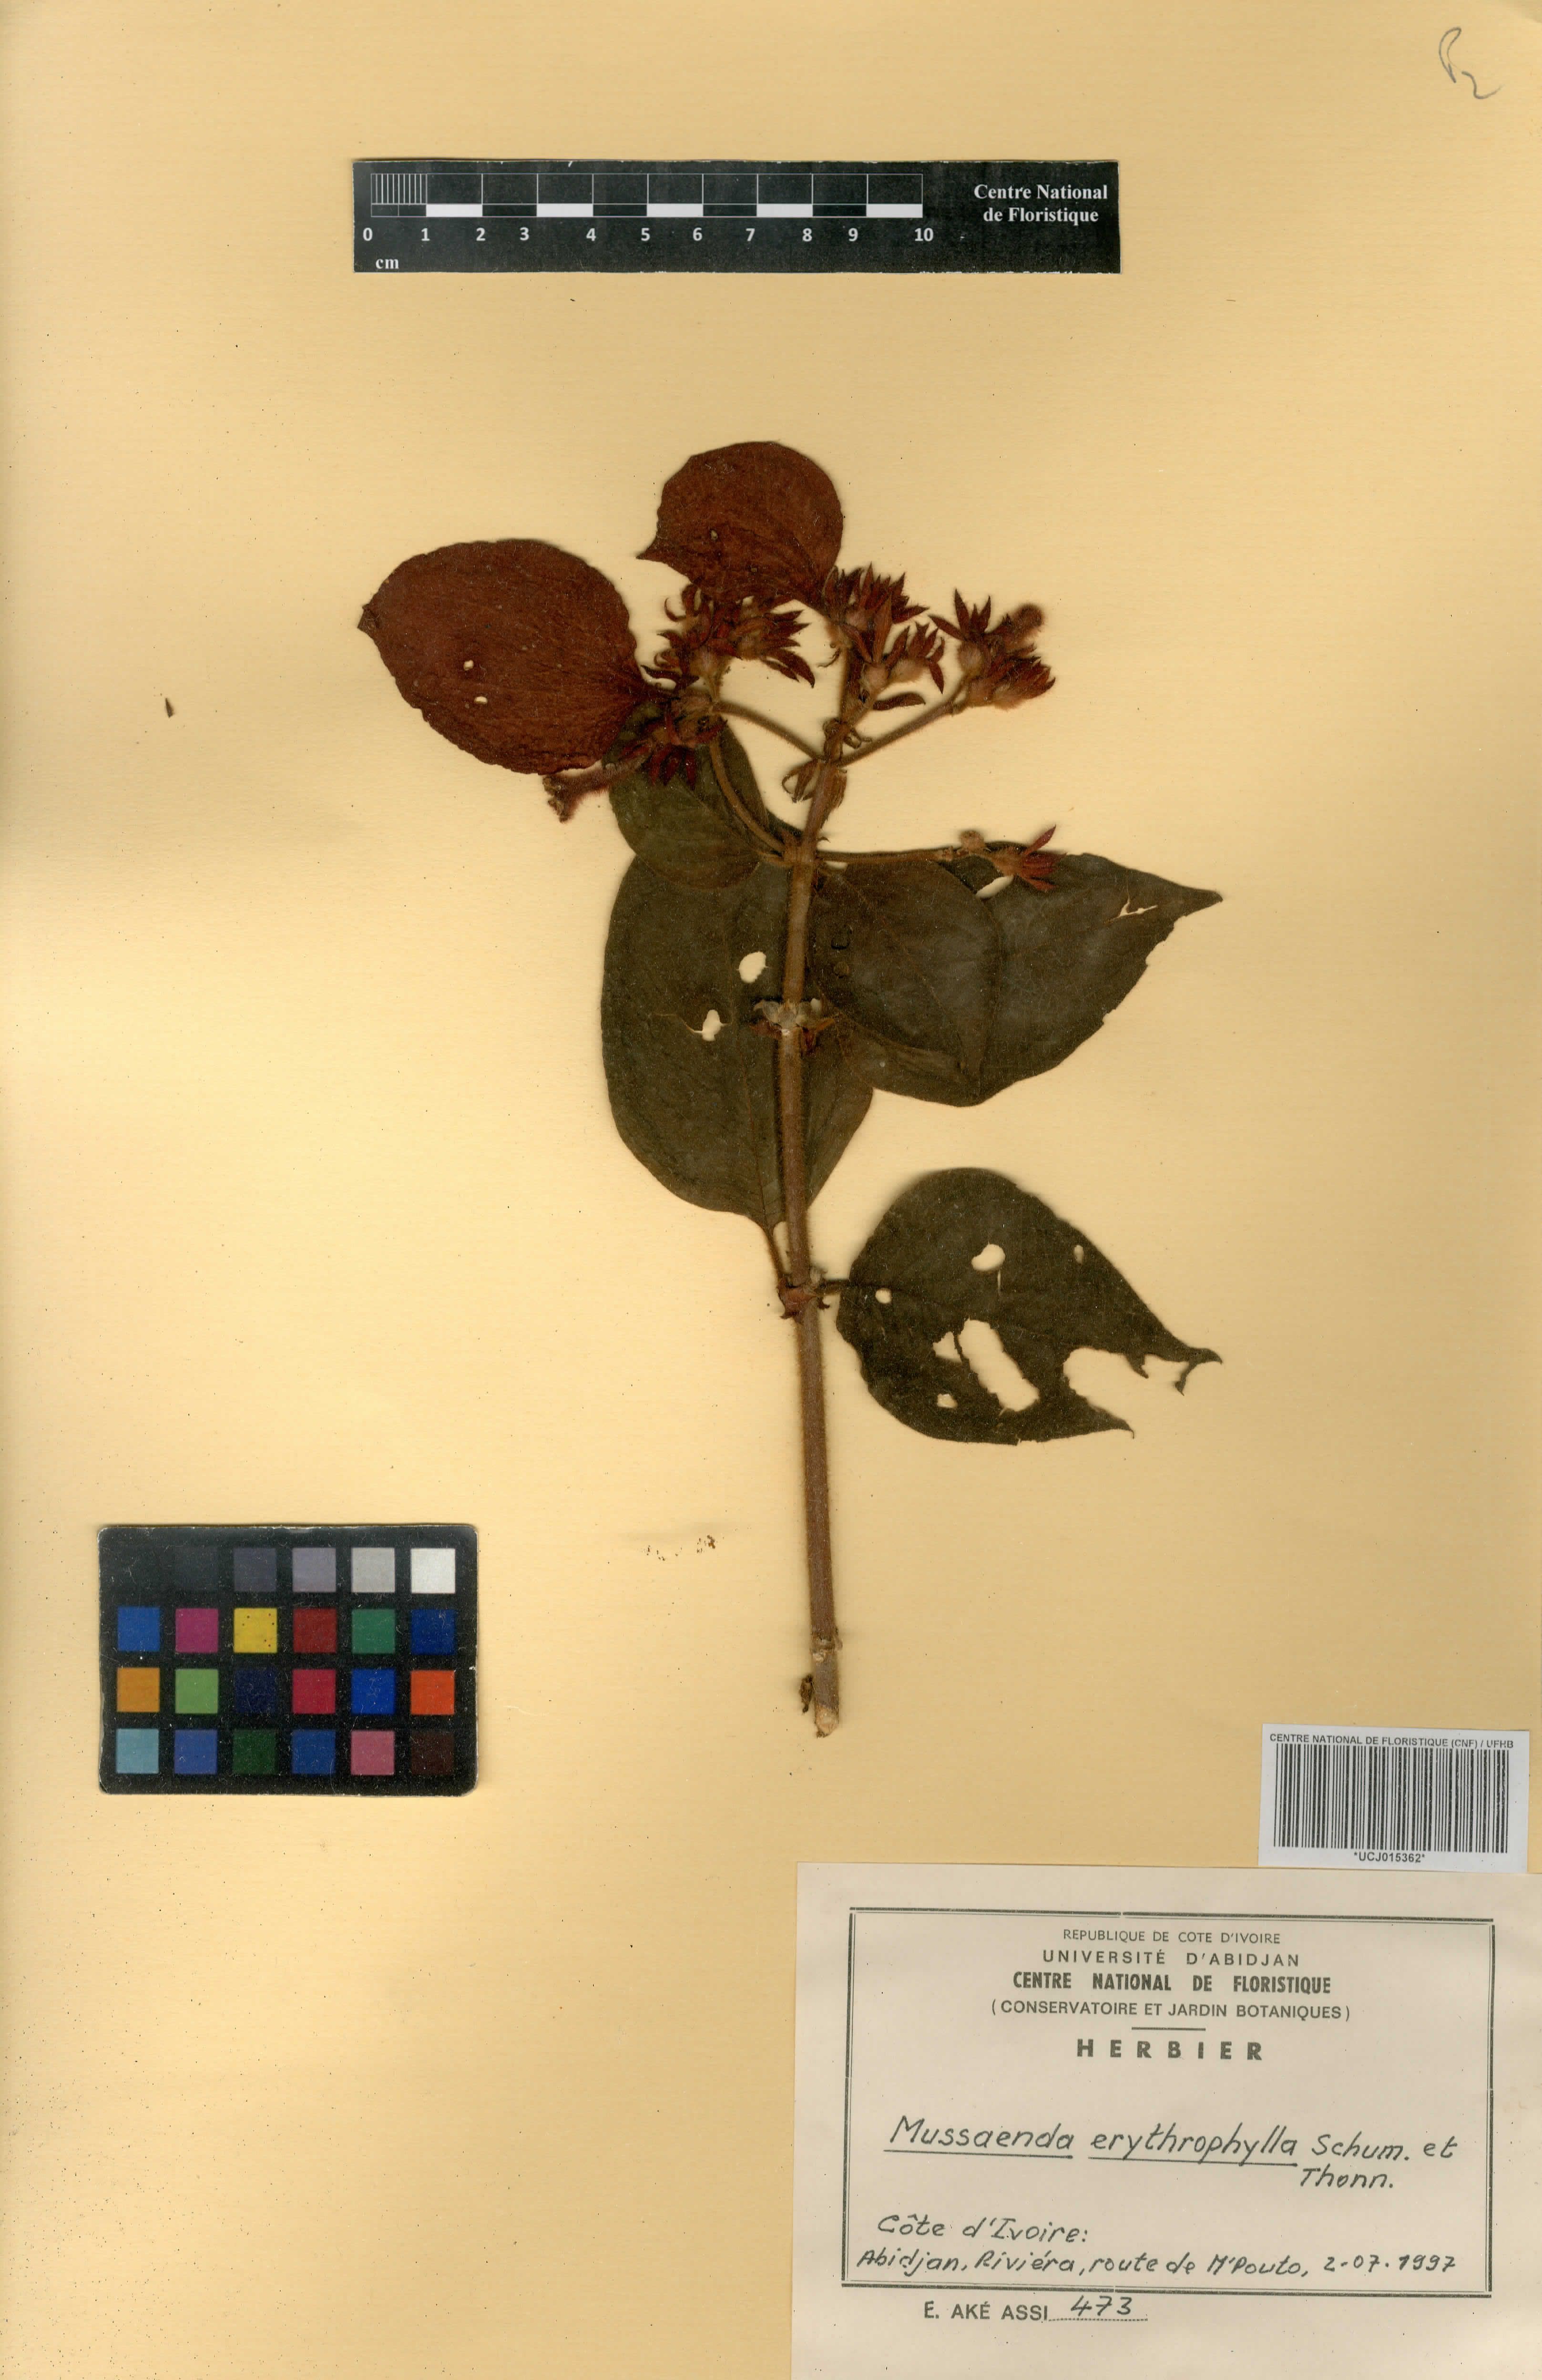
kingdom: Plantae
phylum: Tracheophyta
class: Magnoliopsida
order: Gentianales
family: Rubiaceae
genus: Mussaenda
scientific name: Mussaenda erythrophylla
